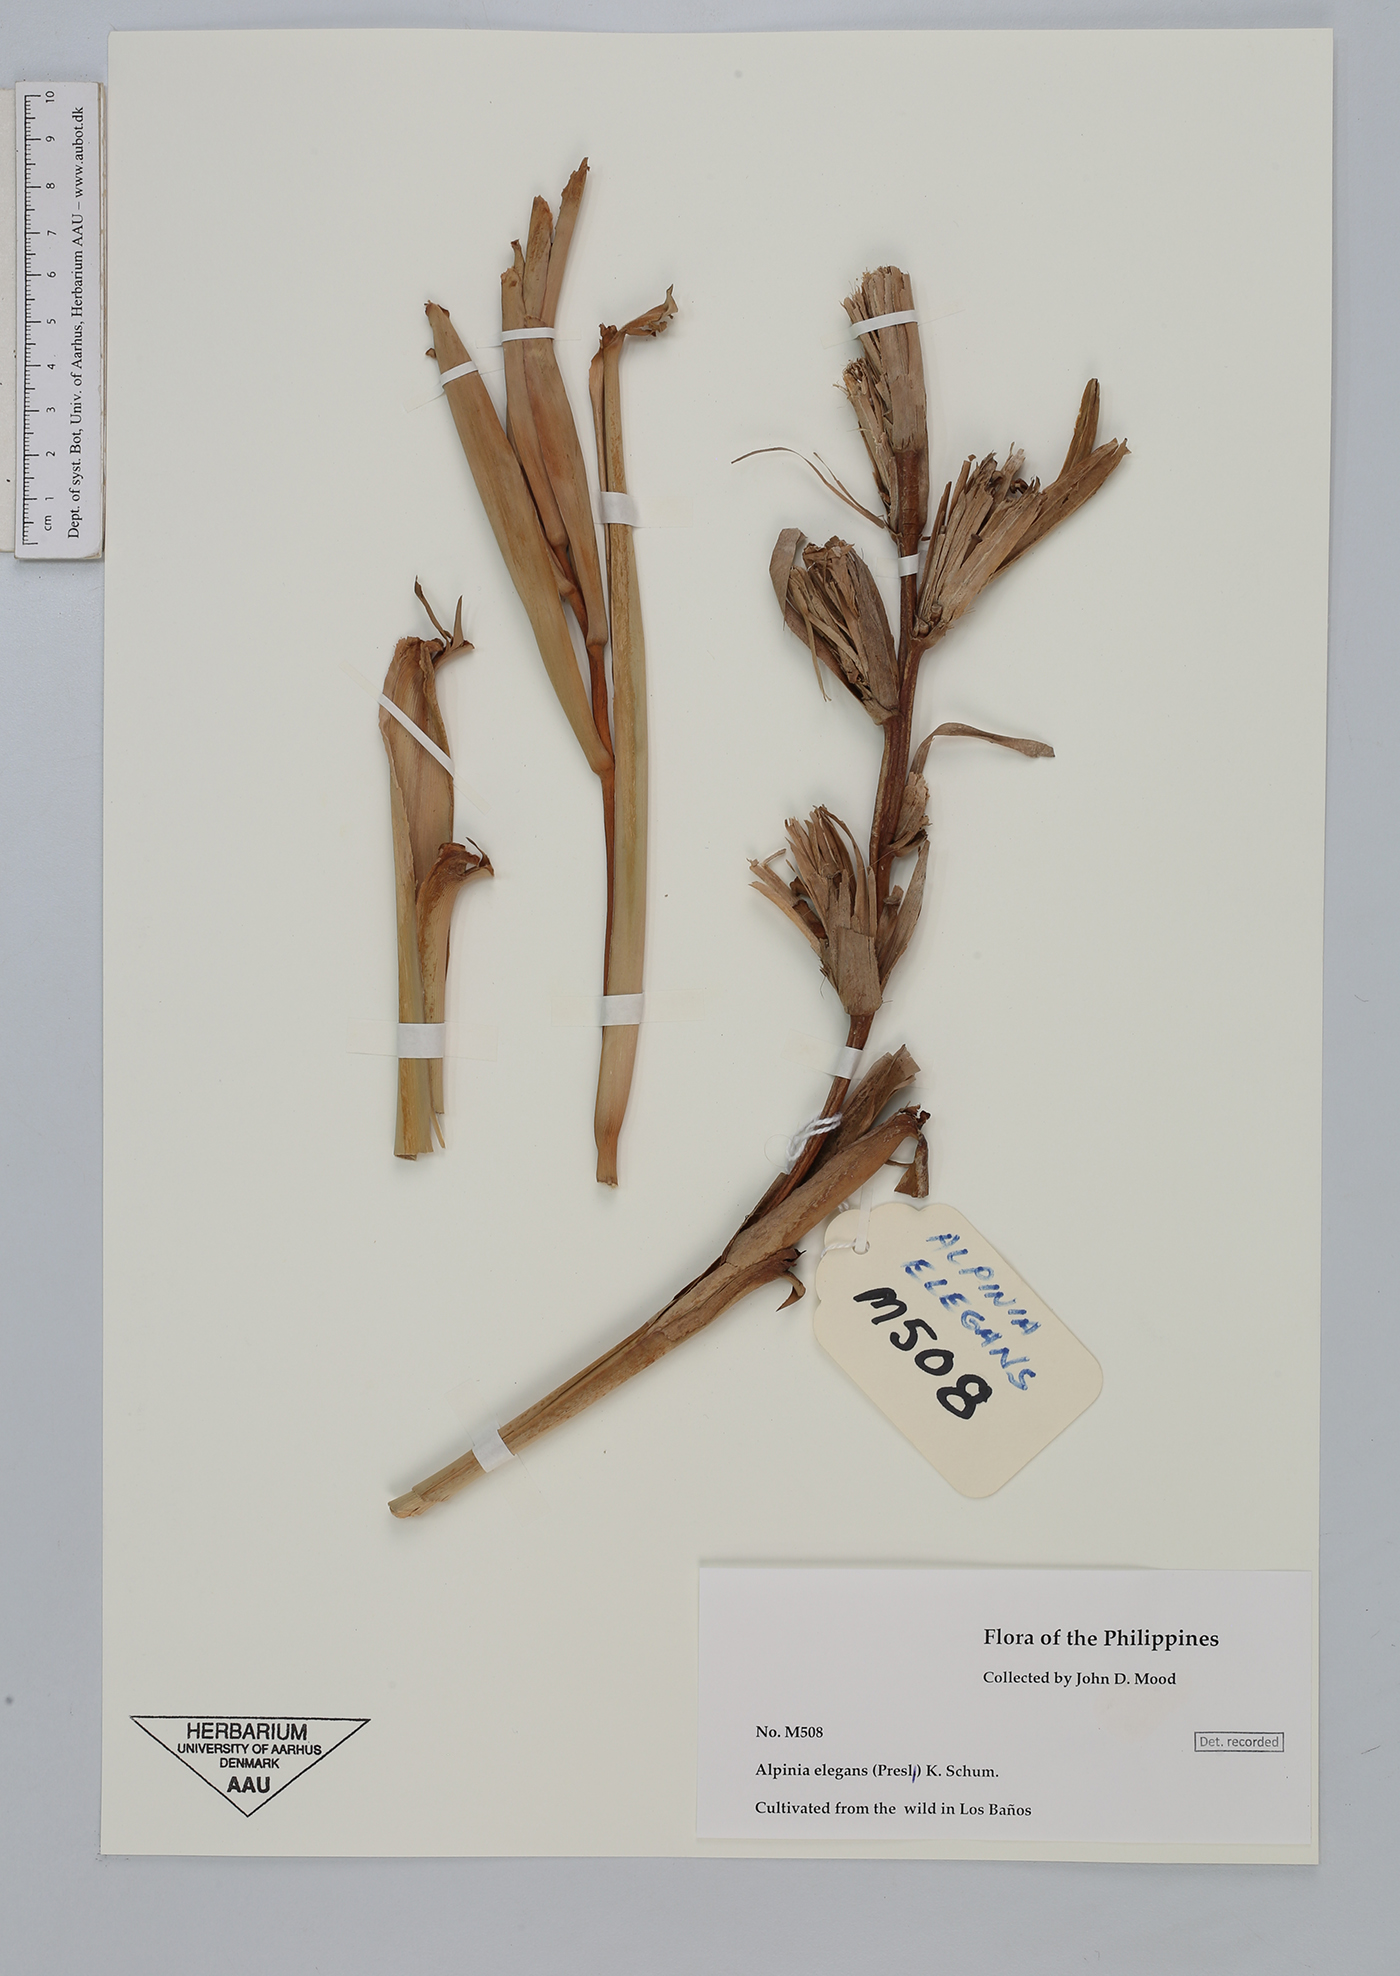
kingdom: Plantae
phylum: Tracheophyta
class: Liliopsida
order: Zingiberales
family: Zingiberaceae
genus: Alpinia
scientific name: Alpinia elegans
